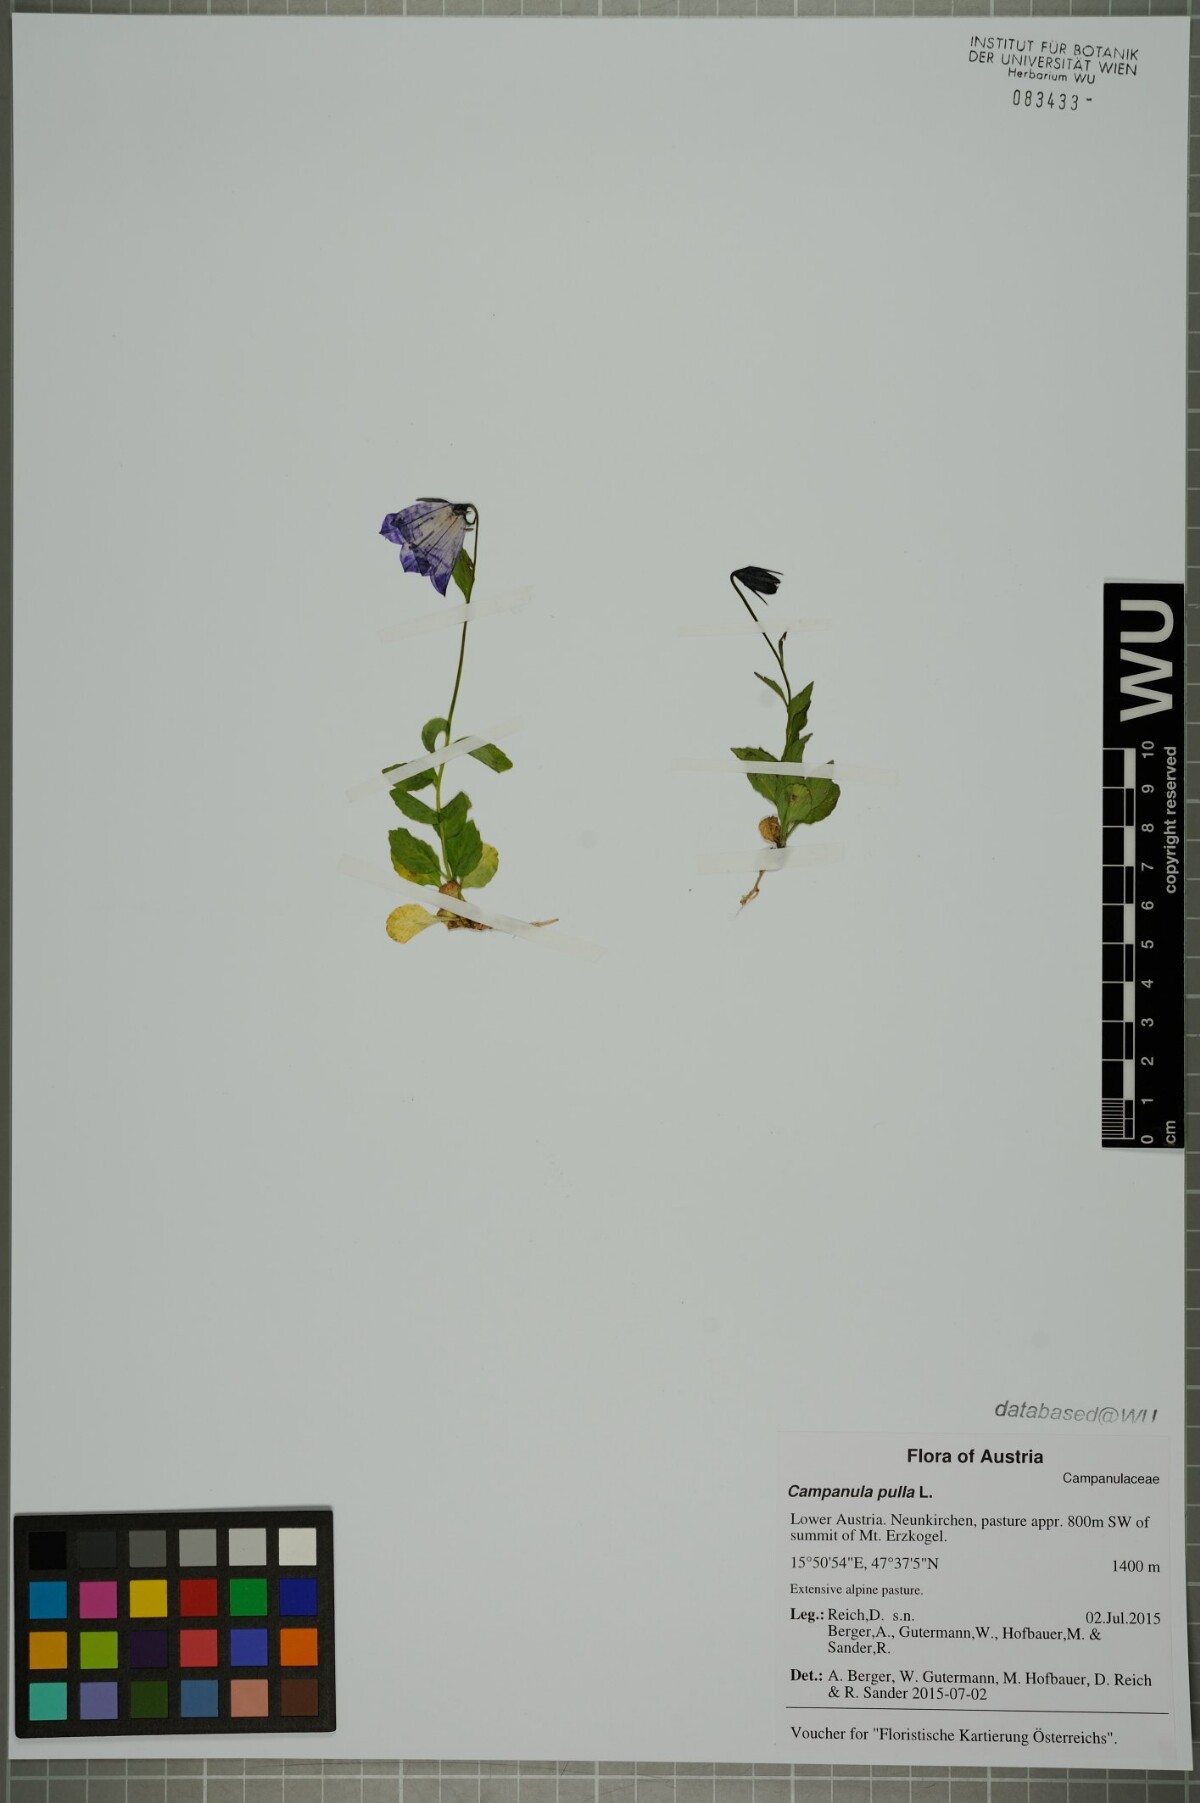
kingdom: Plantae
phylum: Tracheophyta
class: Magnoliopsida
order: Asterales
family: Campanulaceae
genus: Campanula
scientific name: Campanula pulla
